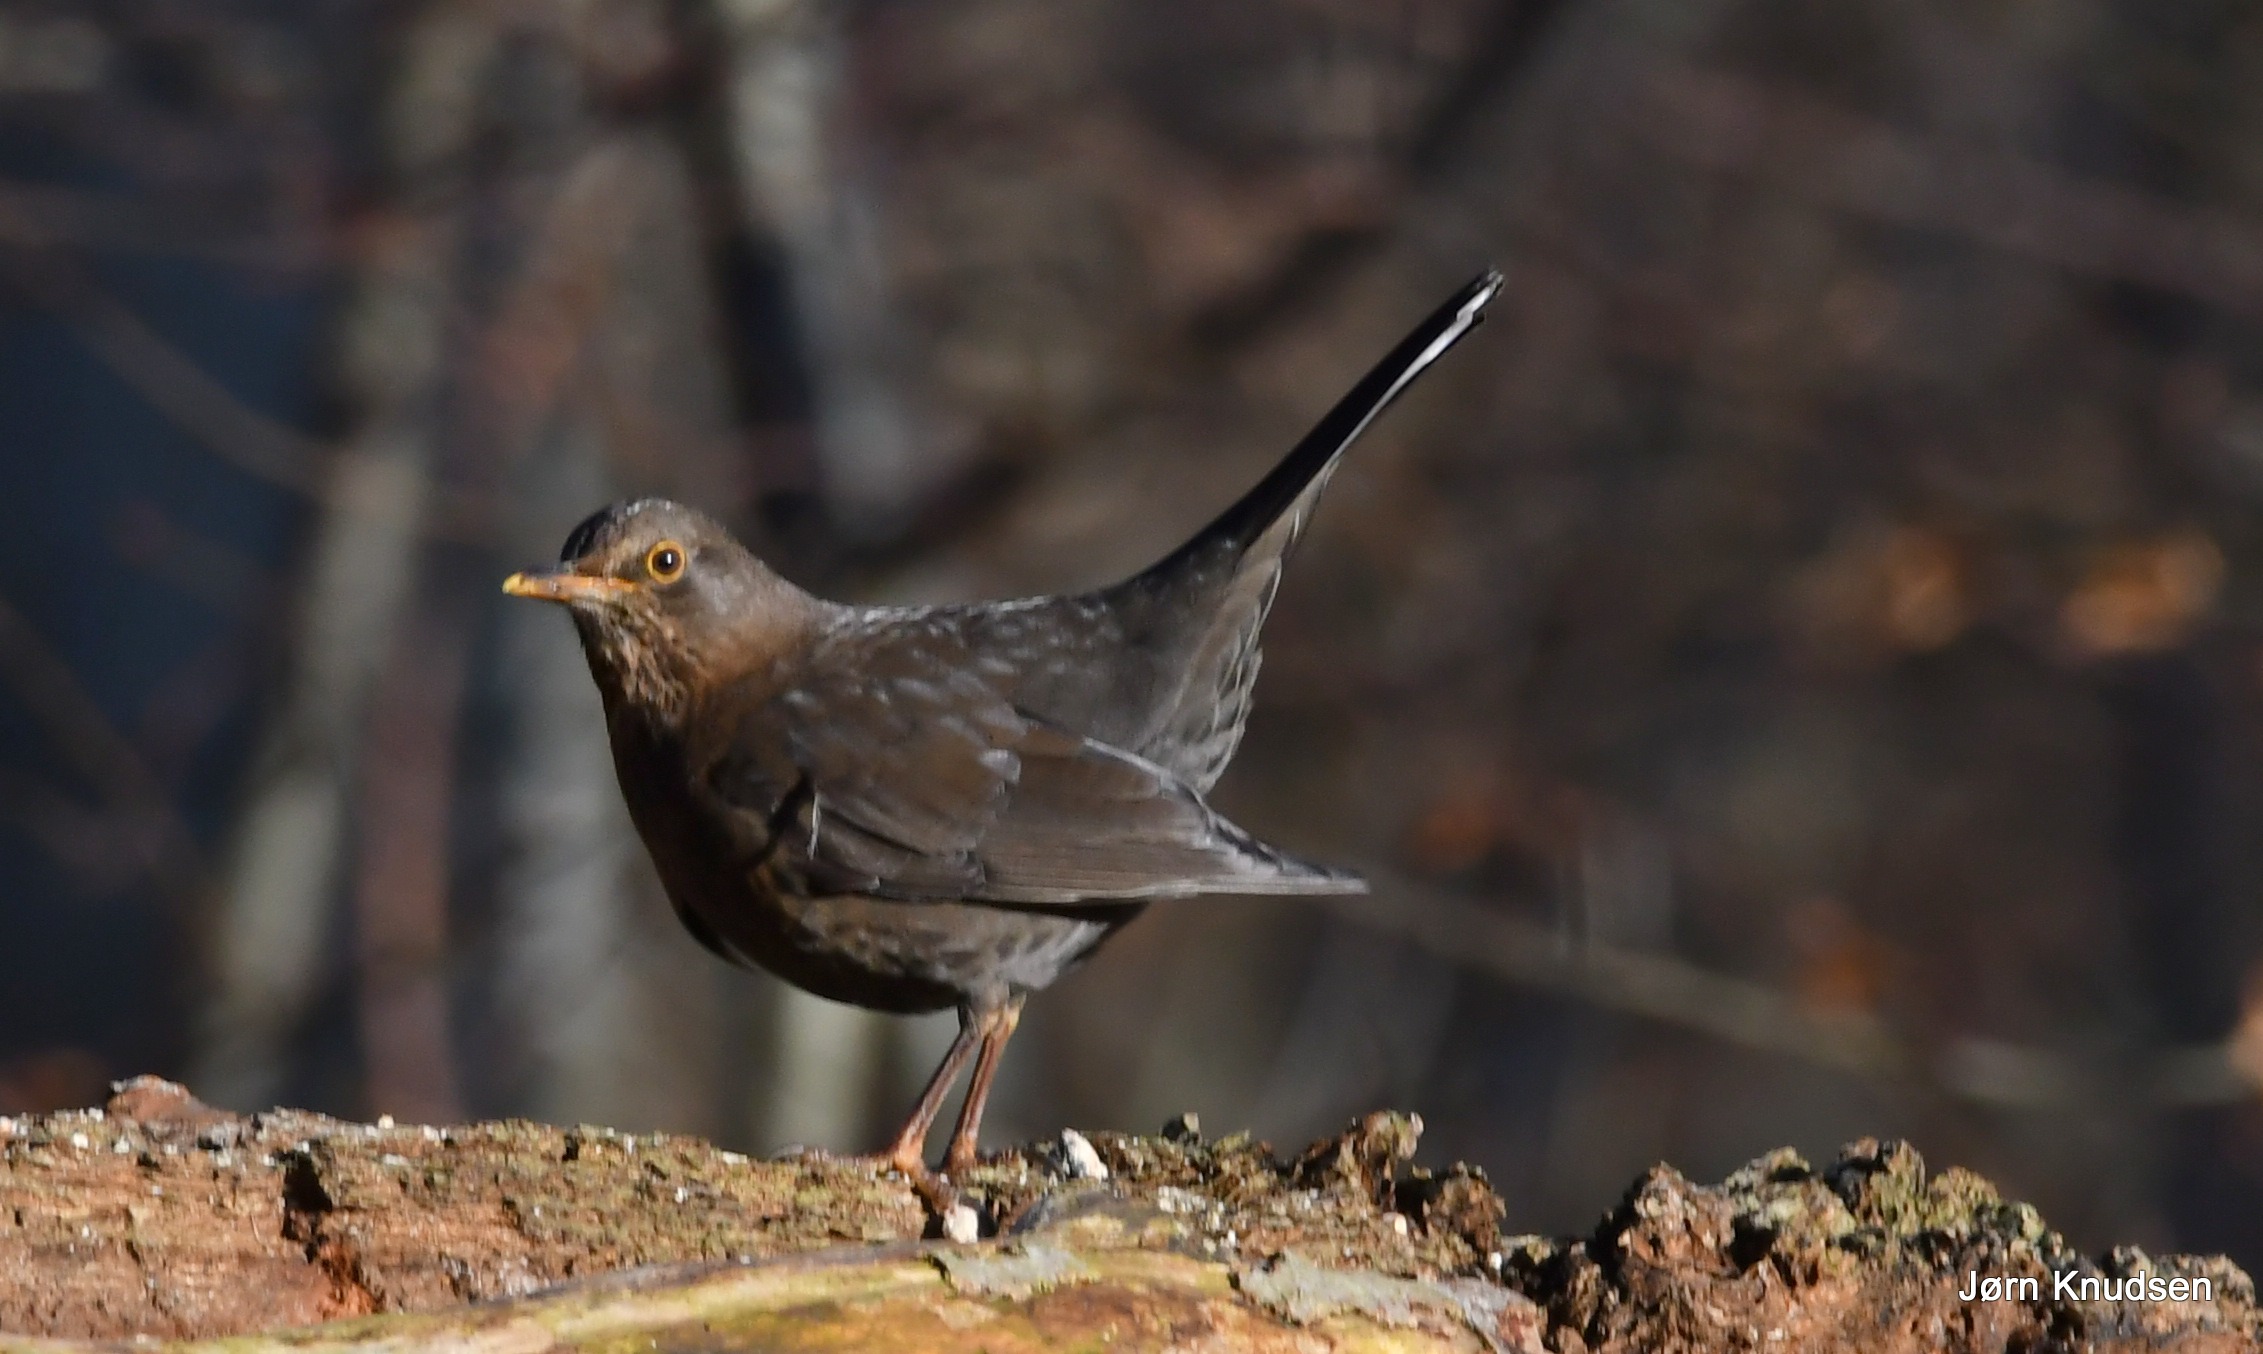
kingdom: Animalia
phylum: Chordata
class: Aves
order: Passeriformes
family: Turdidae
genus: Turdus
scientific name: Turdus merula
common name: Solsort
